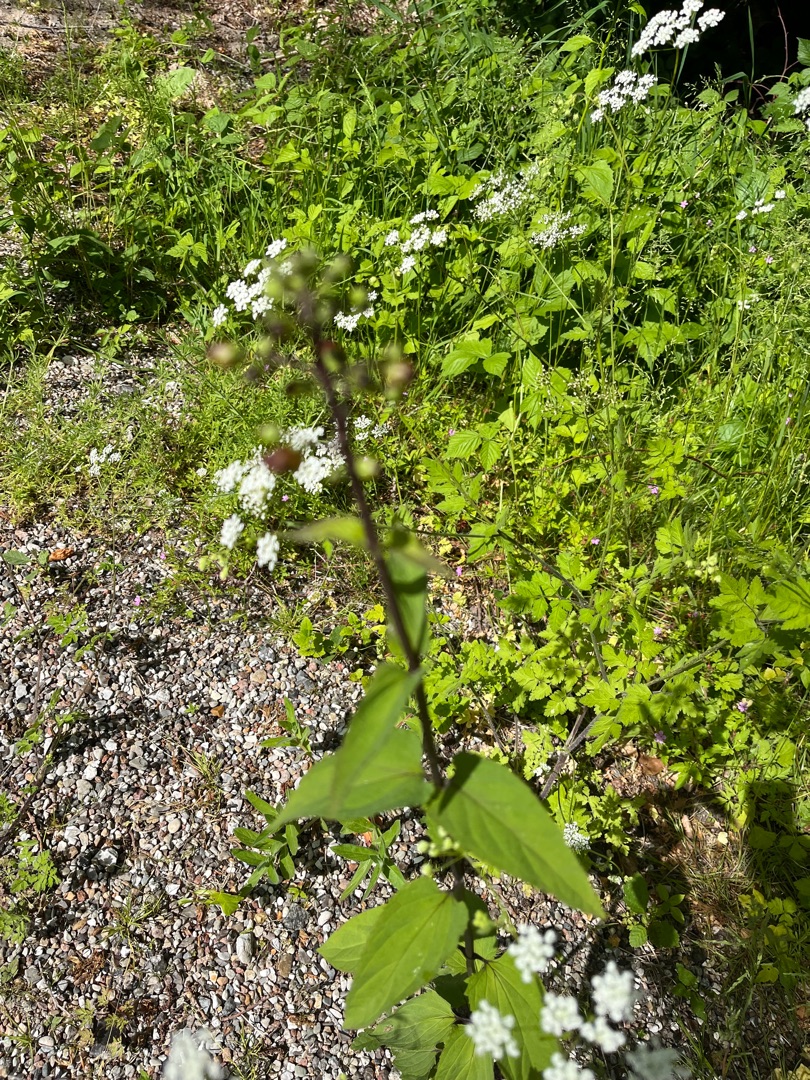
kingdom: Plantae
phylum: Tracheophyta
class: Magnoliopsida
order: Lamiales
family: Scrophulariaceae
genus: Scrophularia
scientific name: Scrophularia nodosa
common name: Knoldet brunrod
